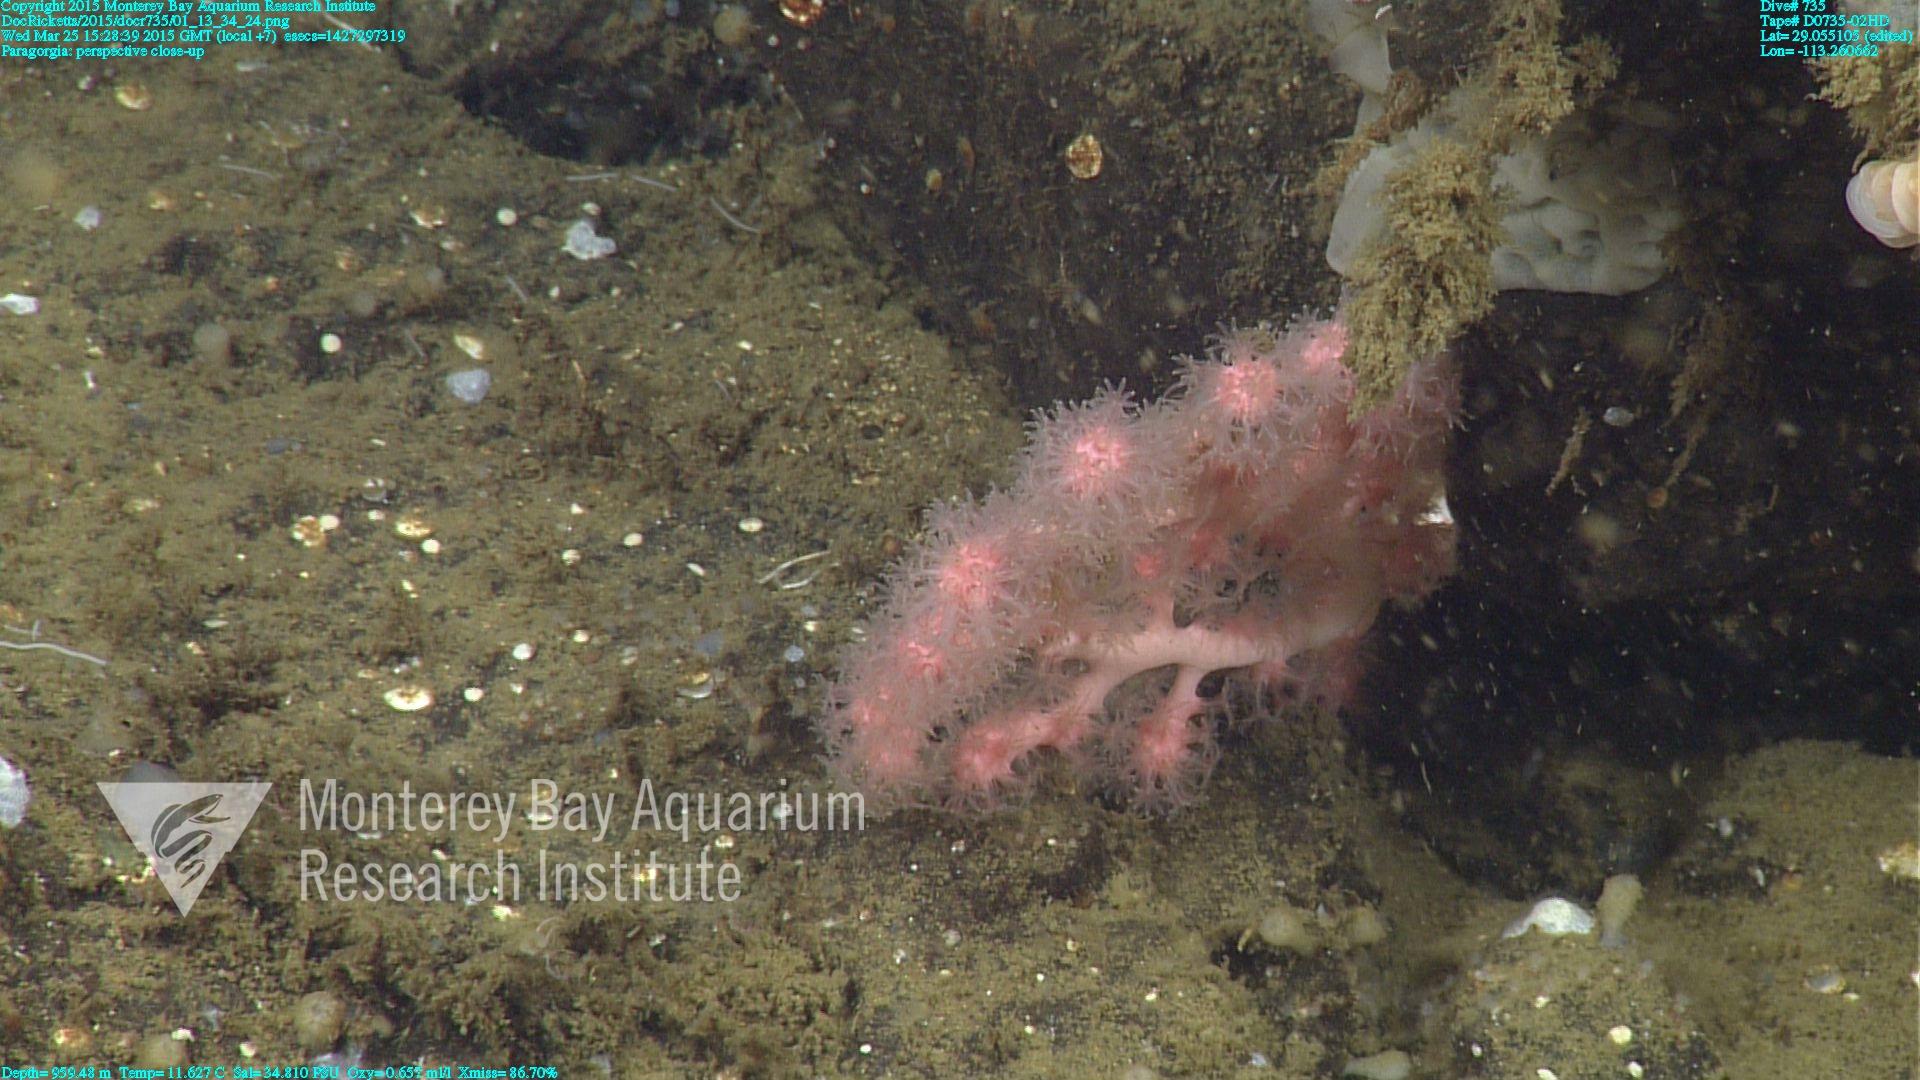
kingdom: Animalia
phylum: Cnidaria
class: Anthozoa
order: Scleralcyonacea
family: Coralliidae
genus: Paragorgia
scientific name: Paragorgia
